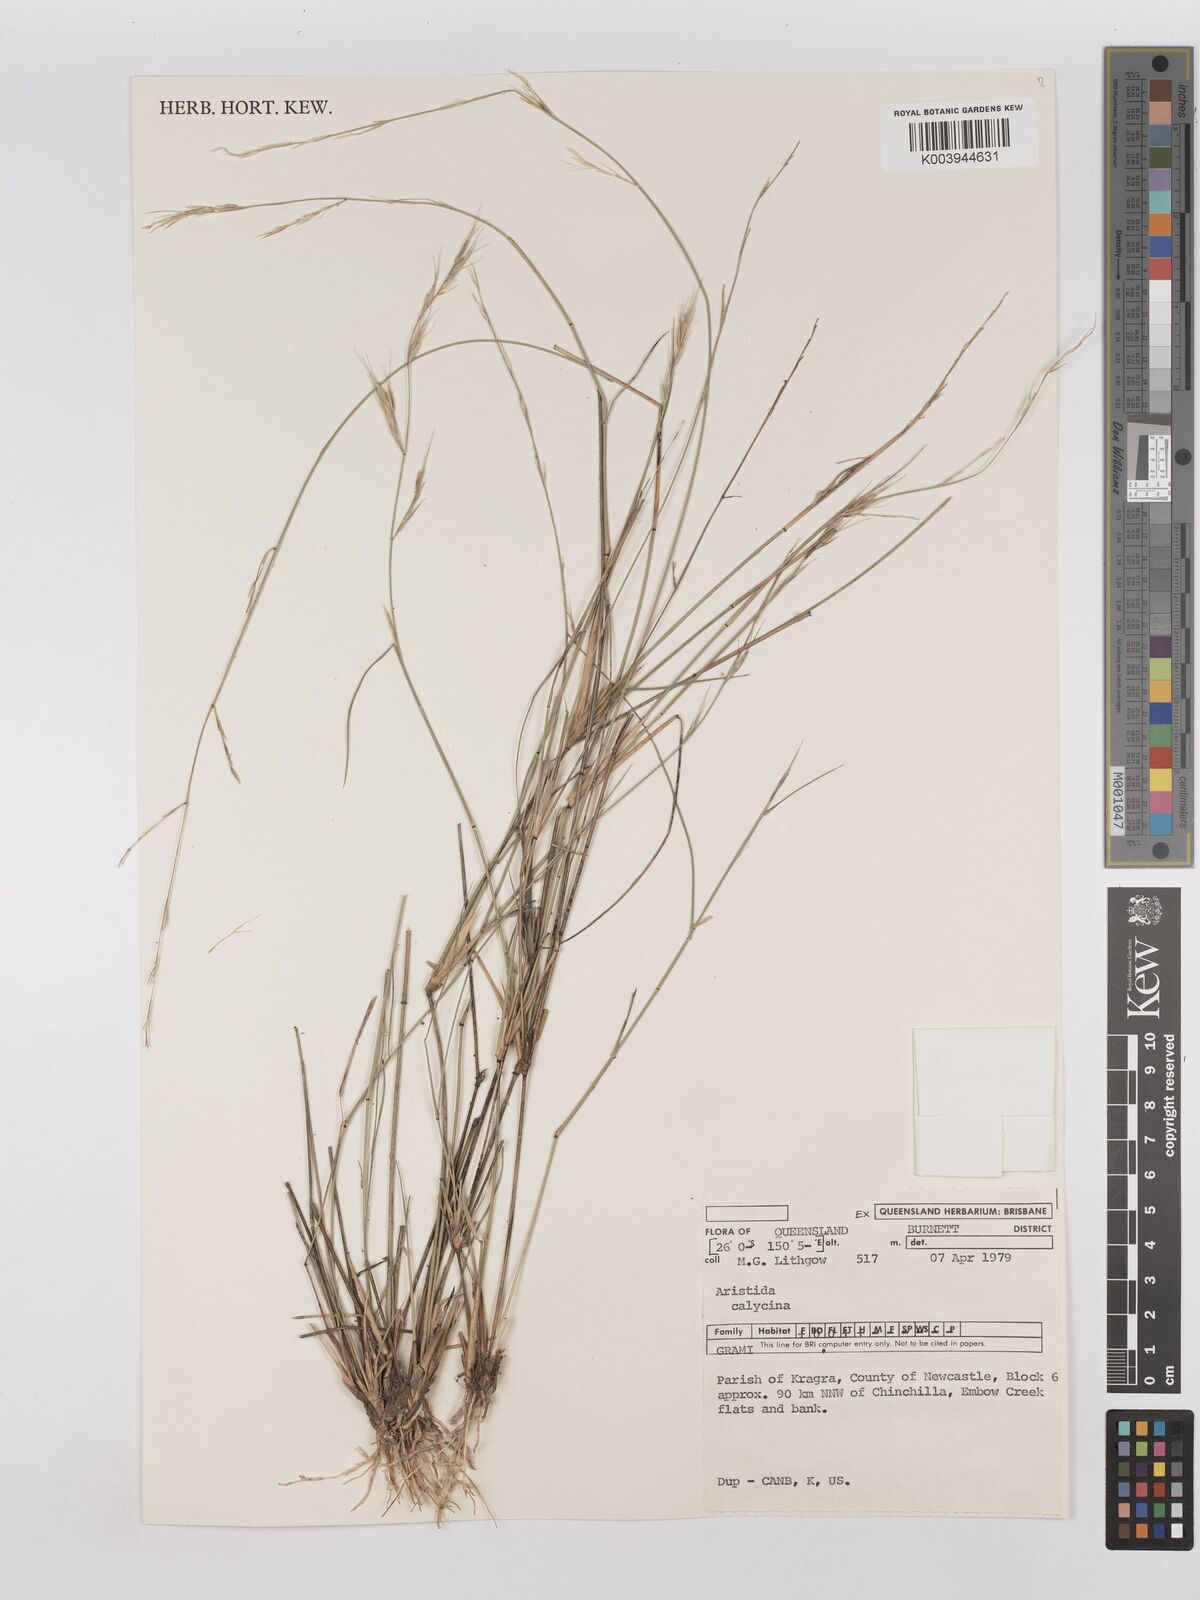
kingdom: Plantae
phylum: Tracheophyta
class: Liliopsida
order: Poales
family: Poaceae
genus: Aristida
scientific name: Aristida calycina
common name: Dark wire grass
